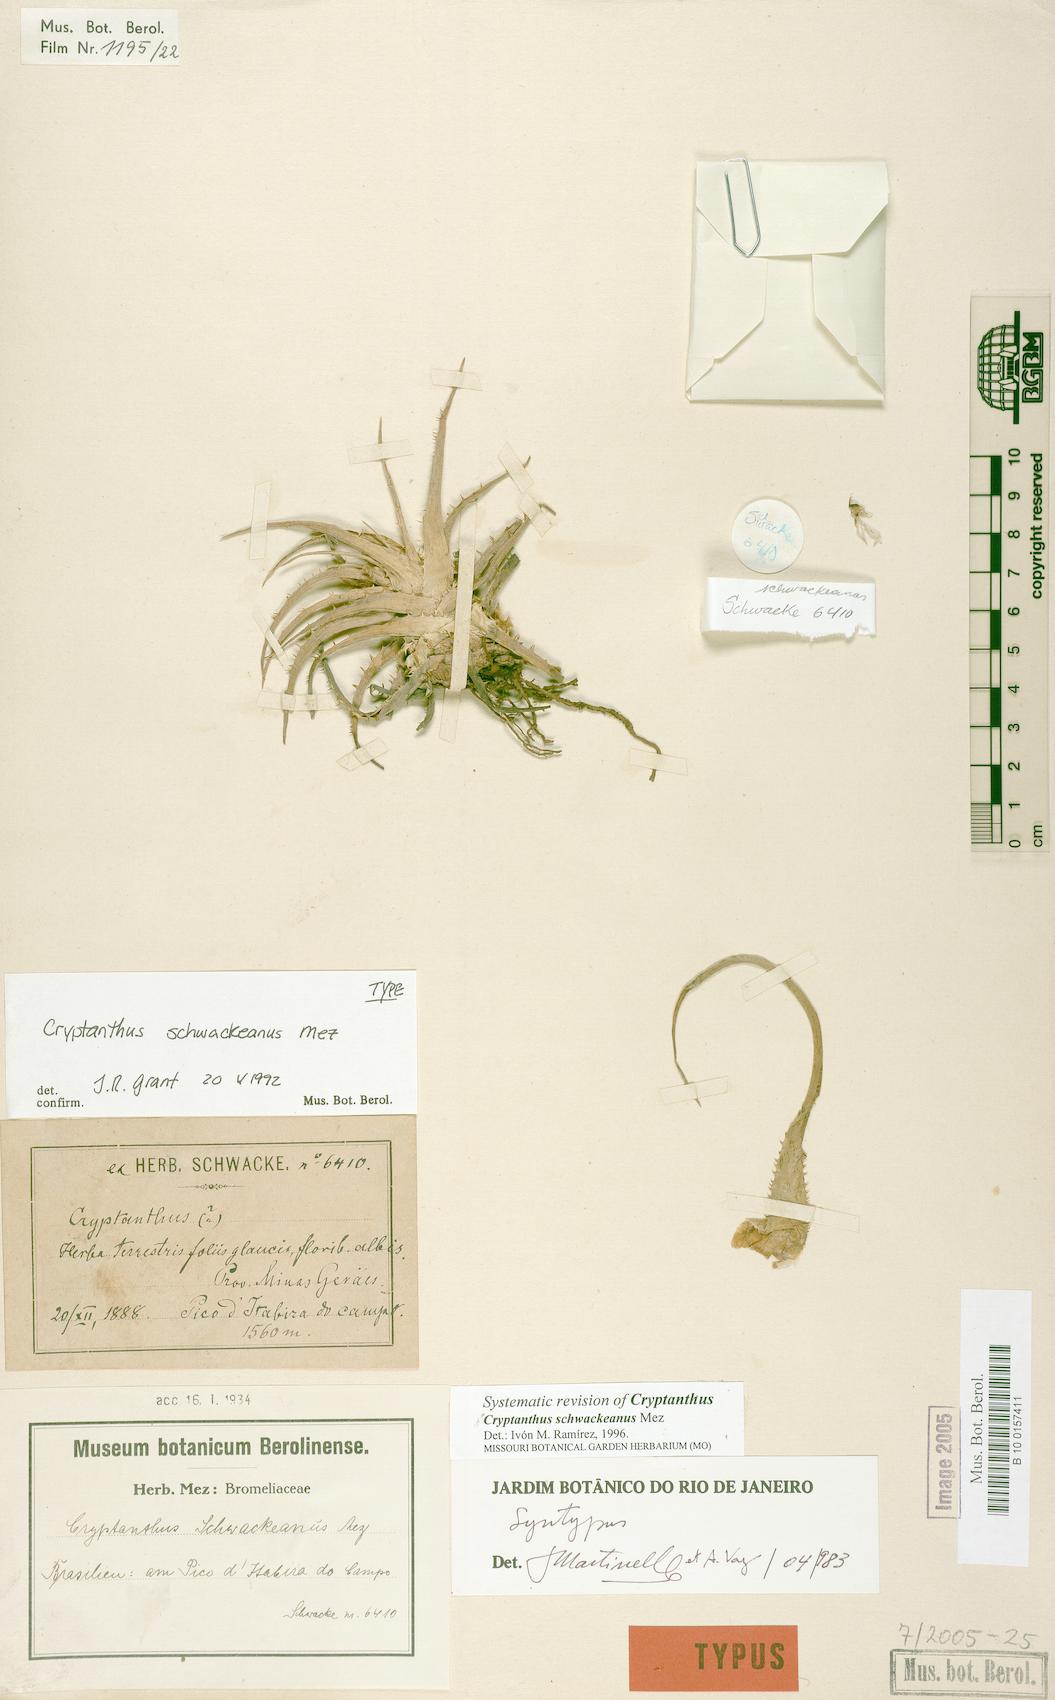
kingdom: Plantae
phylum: Tracheophyta
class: Liliopsida
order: Poales
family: Bromeliaceae
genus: Hoplocryptanthus
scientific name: Hoplocryptanthus schwackeanus
